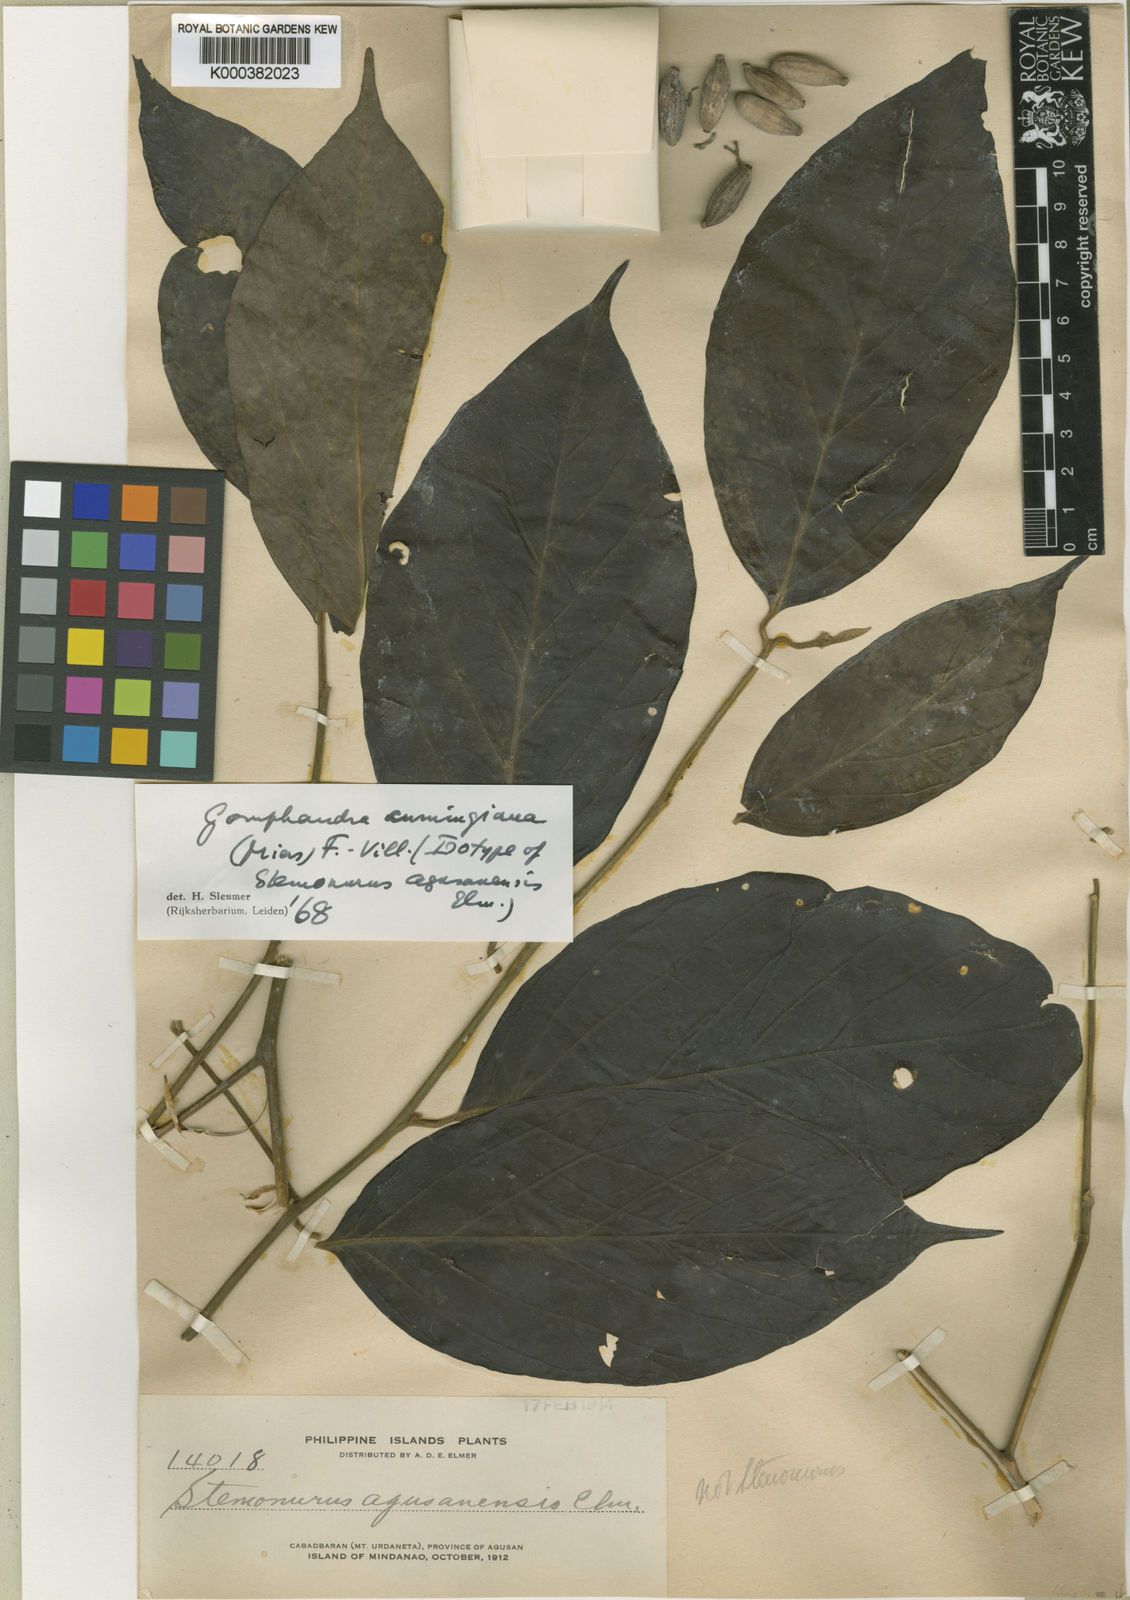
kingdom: Plantae
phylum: Tracheophyta
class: Magnoliopsida
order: Cardiopteridales
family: Stemonuraceae
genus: Gomphandra
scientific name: Gomphandra cumingiana
